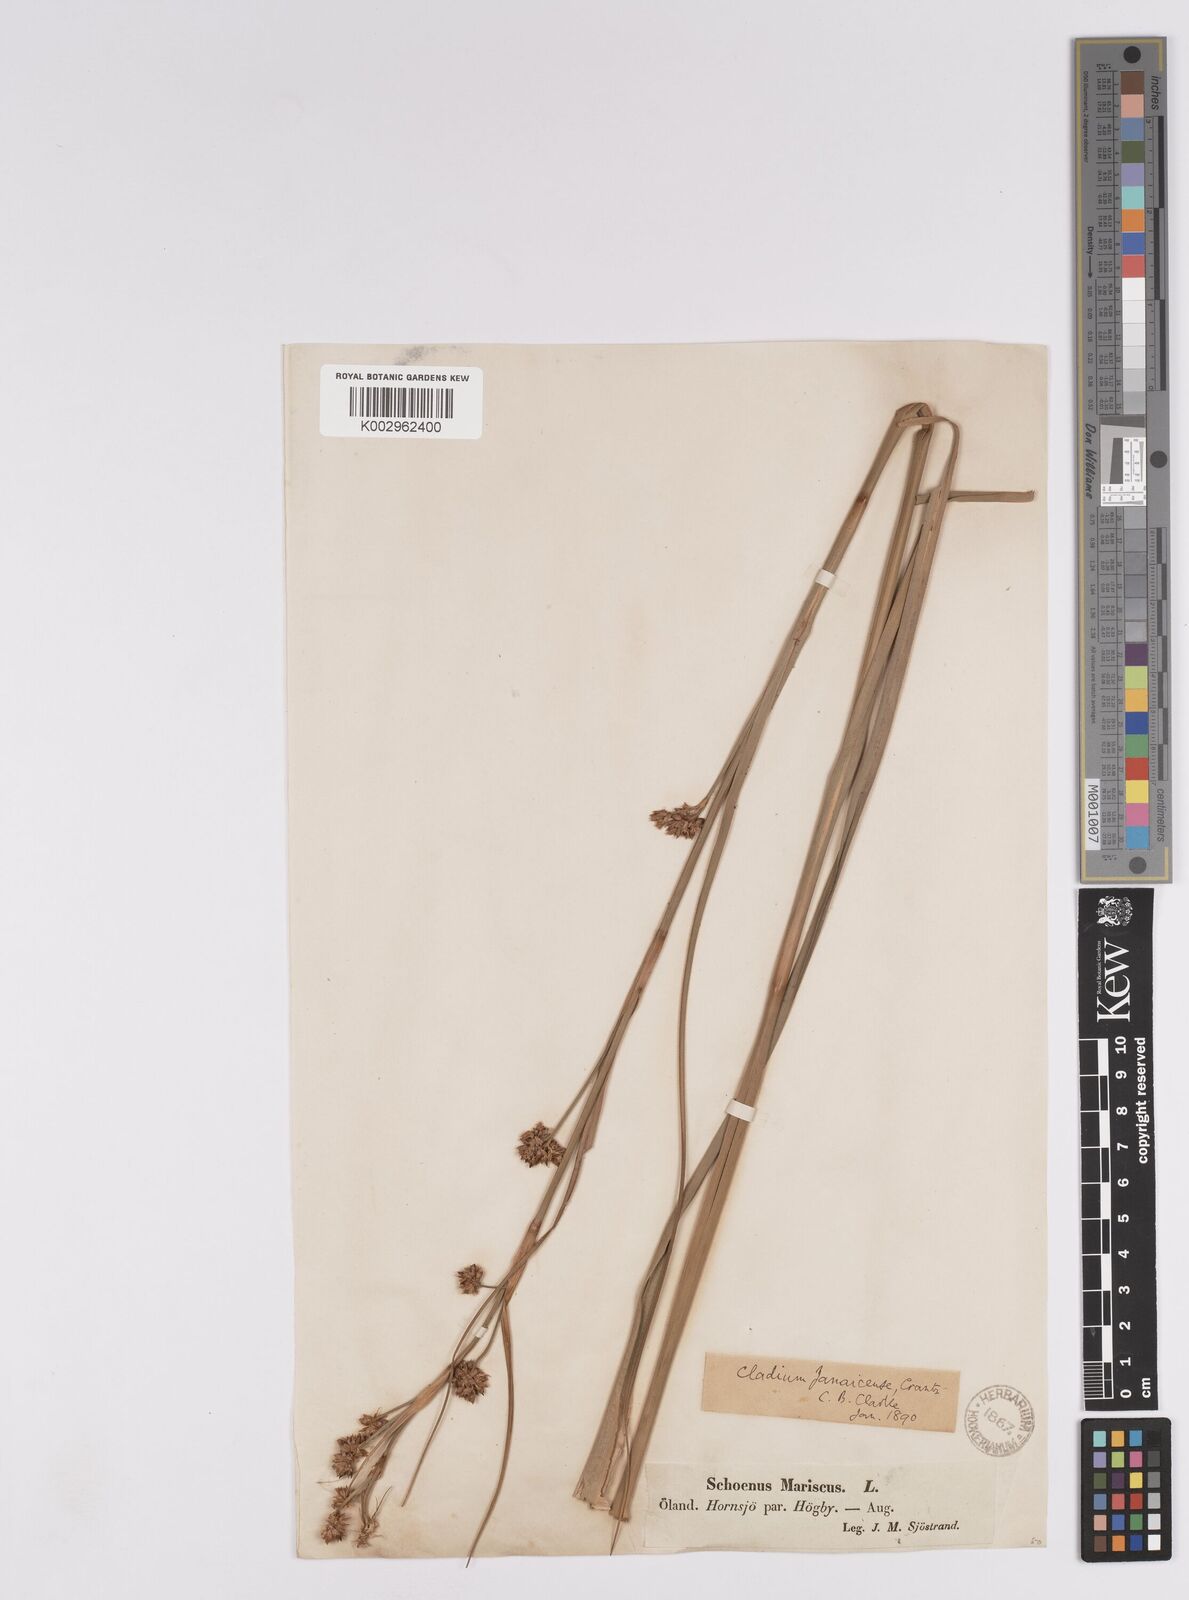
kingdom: Plantae
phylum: Tracheophyta
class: Liliopsida
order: Poales
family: Cyperaceae
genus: Cladium
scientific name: Cladium mariscus
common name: Great fen-sedge
